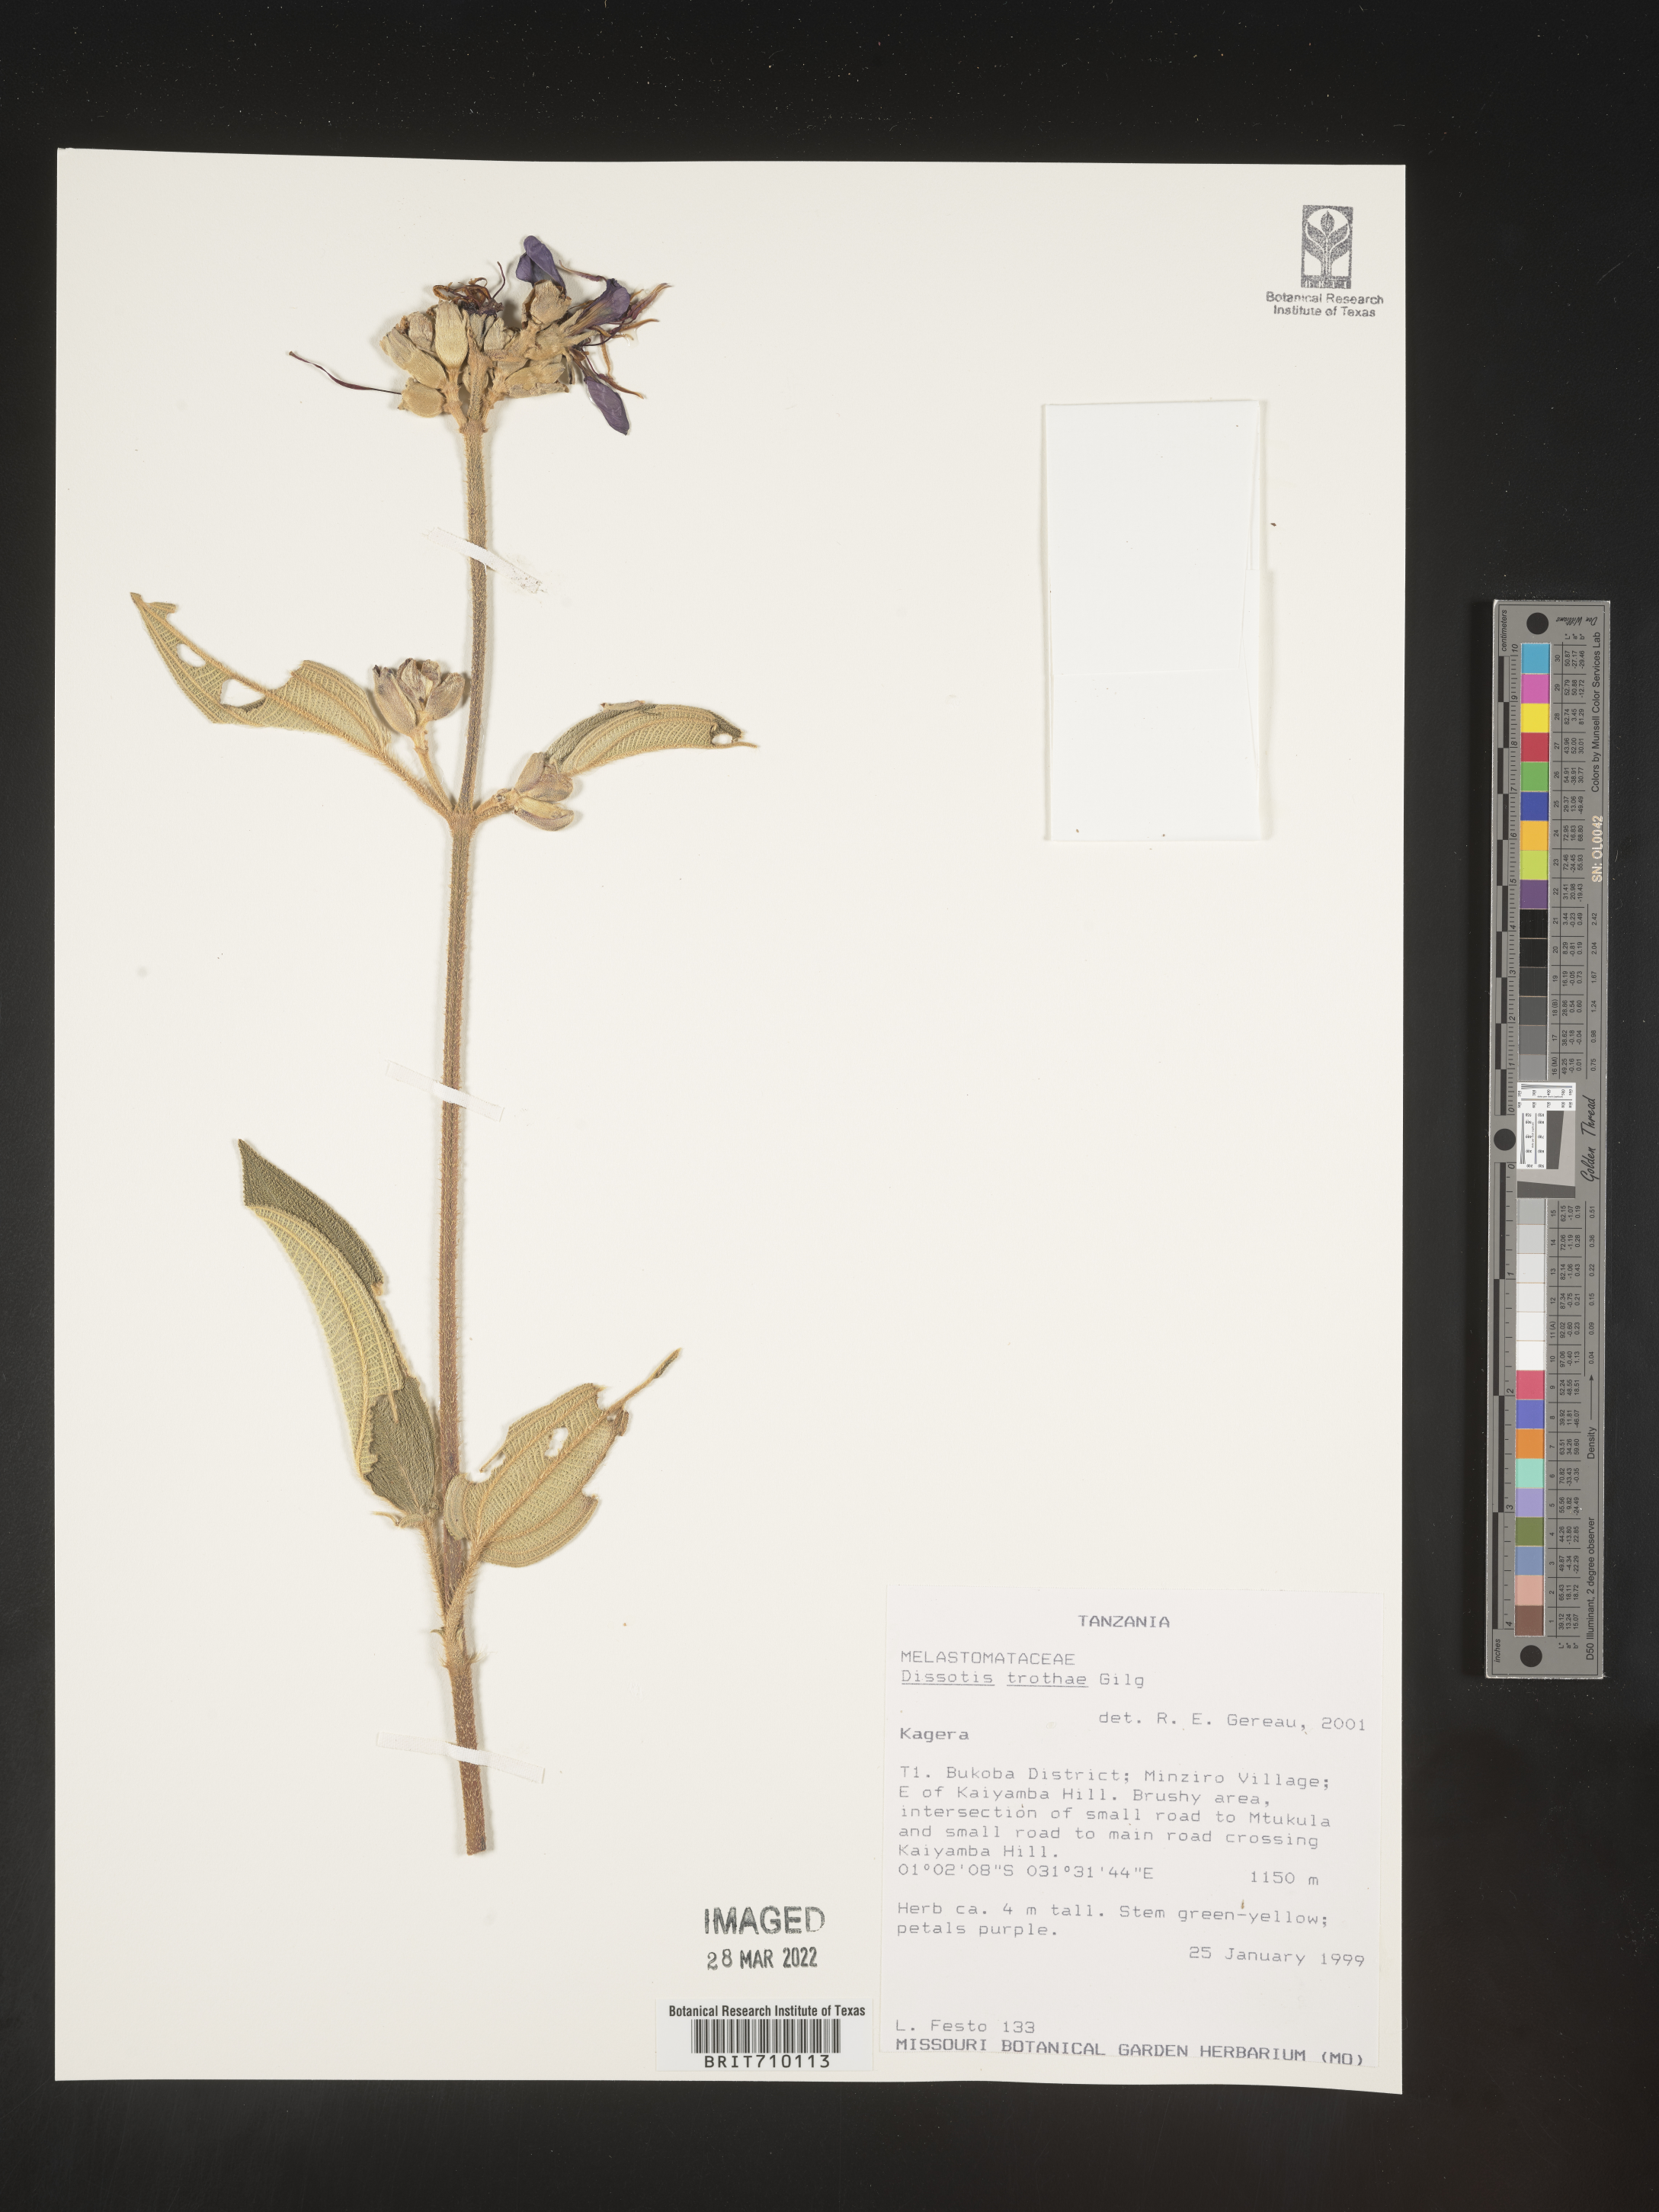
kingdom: Plantae
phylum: Tracheophyta
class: Magnoliopsida
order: Myrtales
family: Melastomataceae
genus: Dissotis
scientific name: Dissotis
